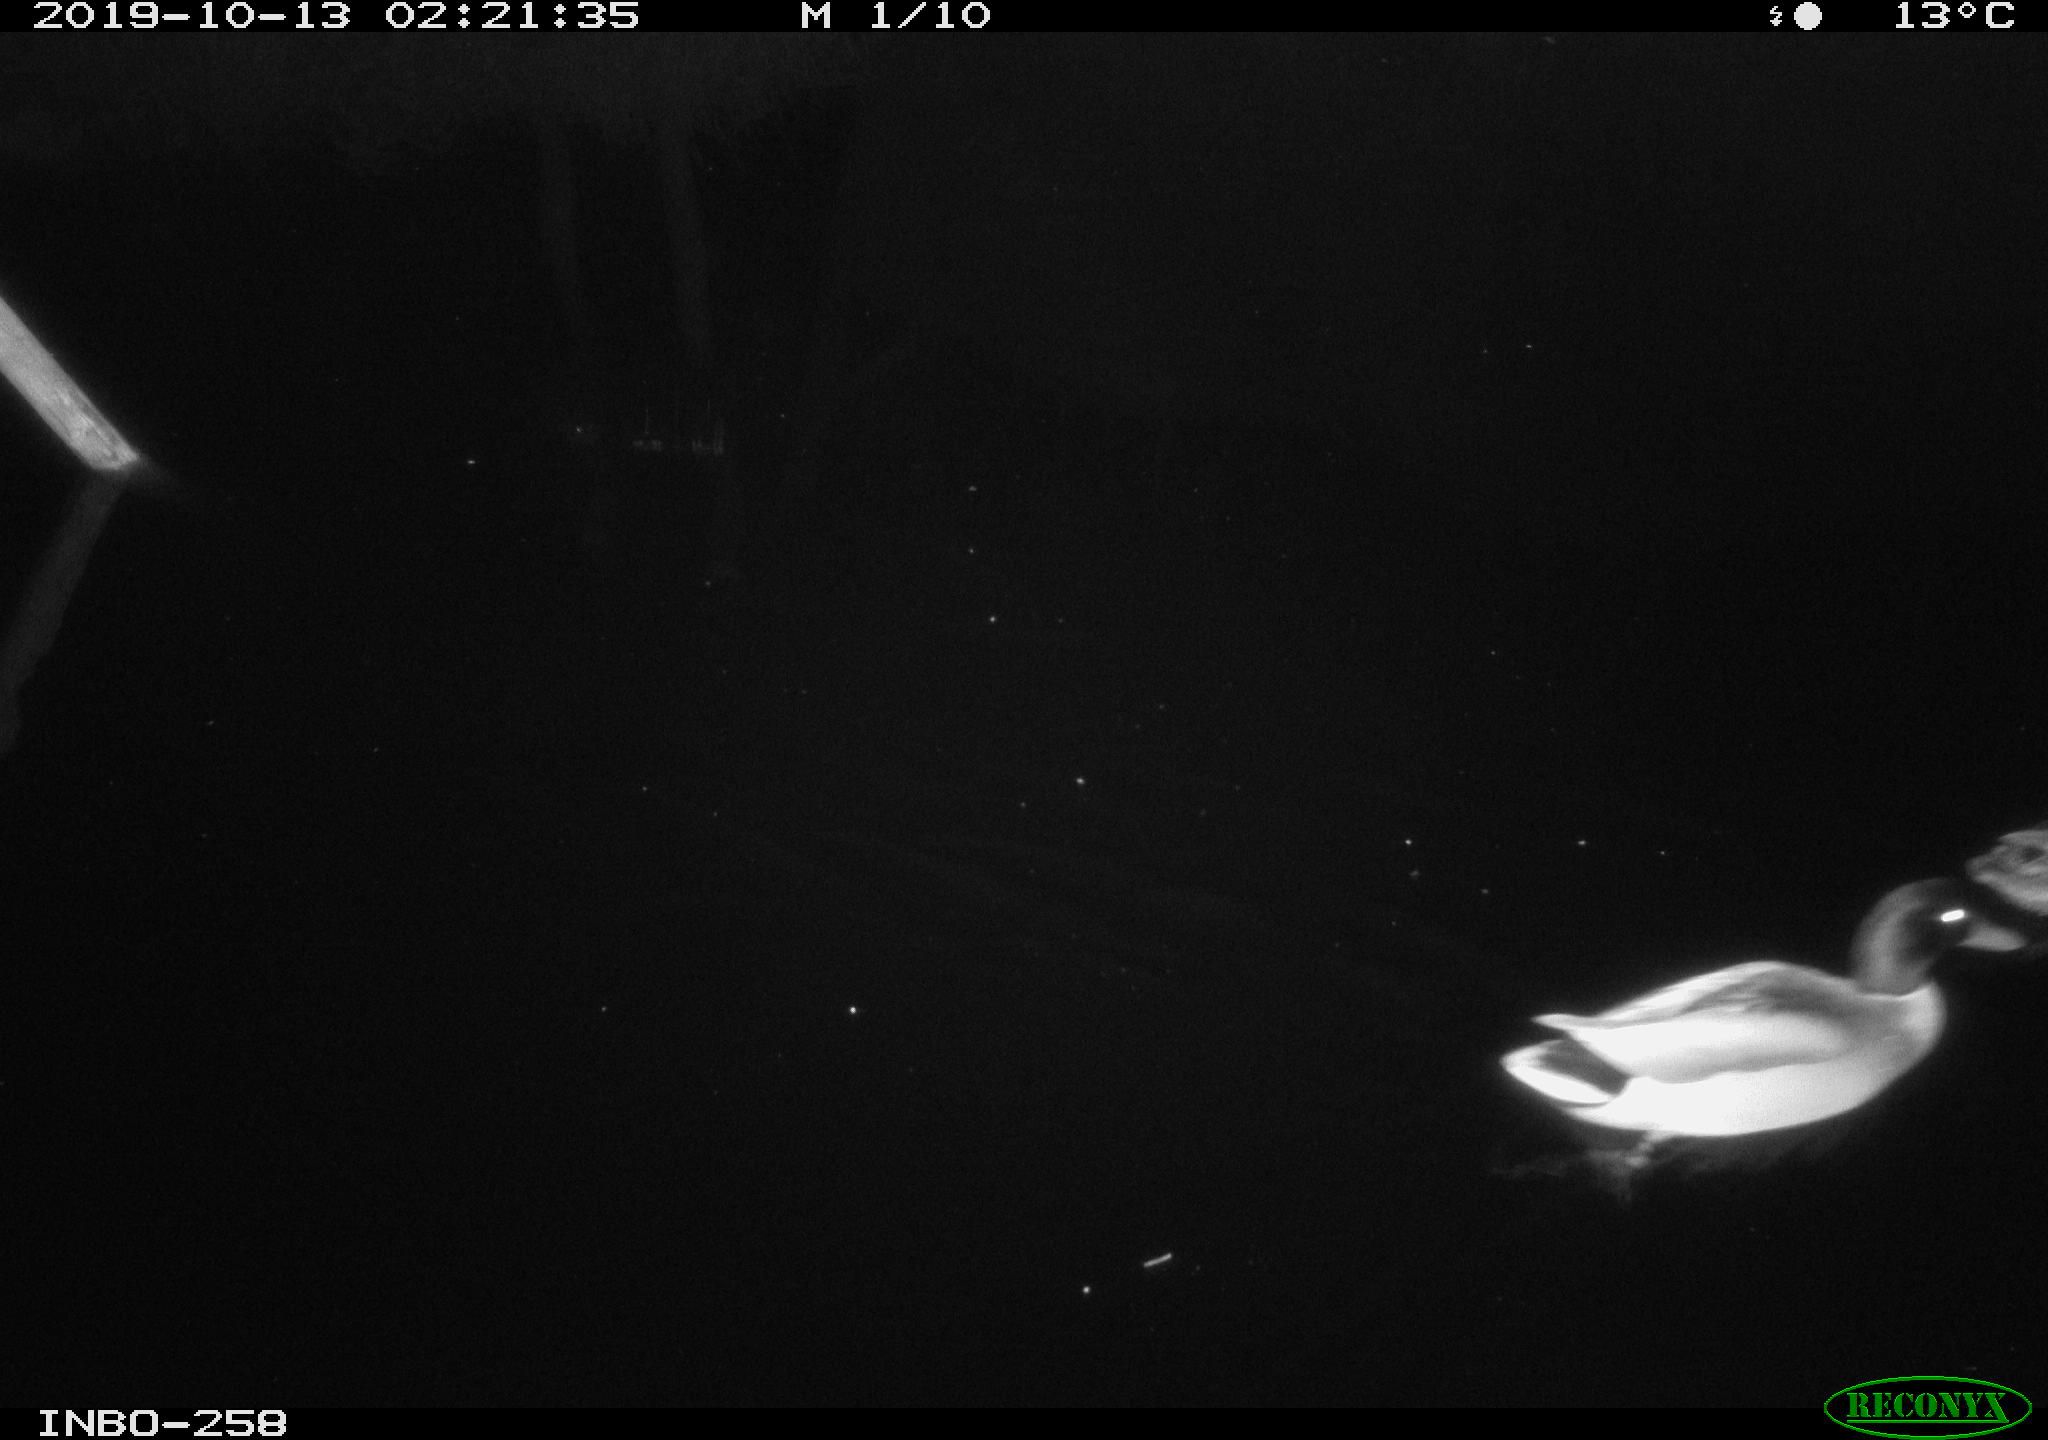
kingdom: Animalia
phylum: Chordata
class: Aves
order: Anseriformes
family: Anatidae
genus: Anas
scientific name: Anas platyrhynchos
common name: Mallard
